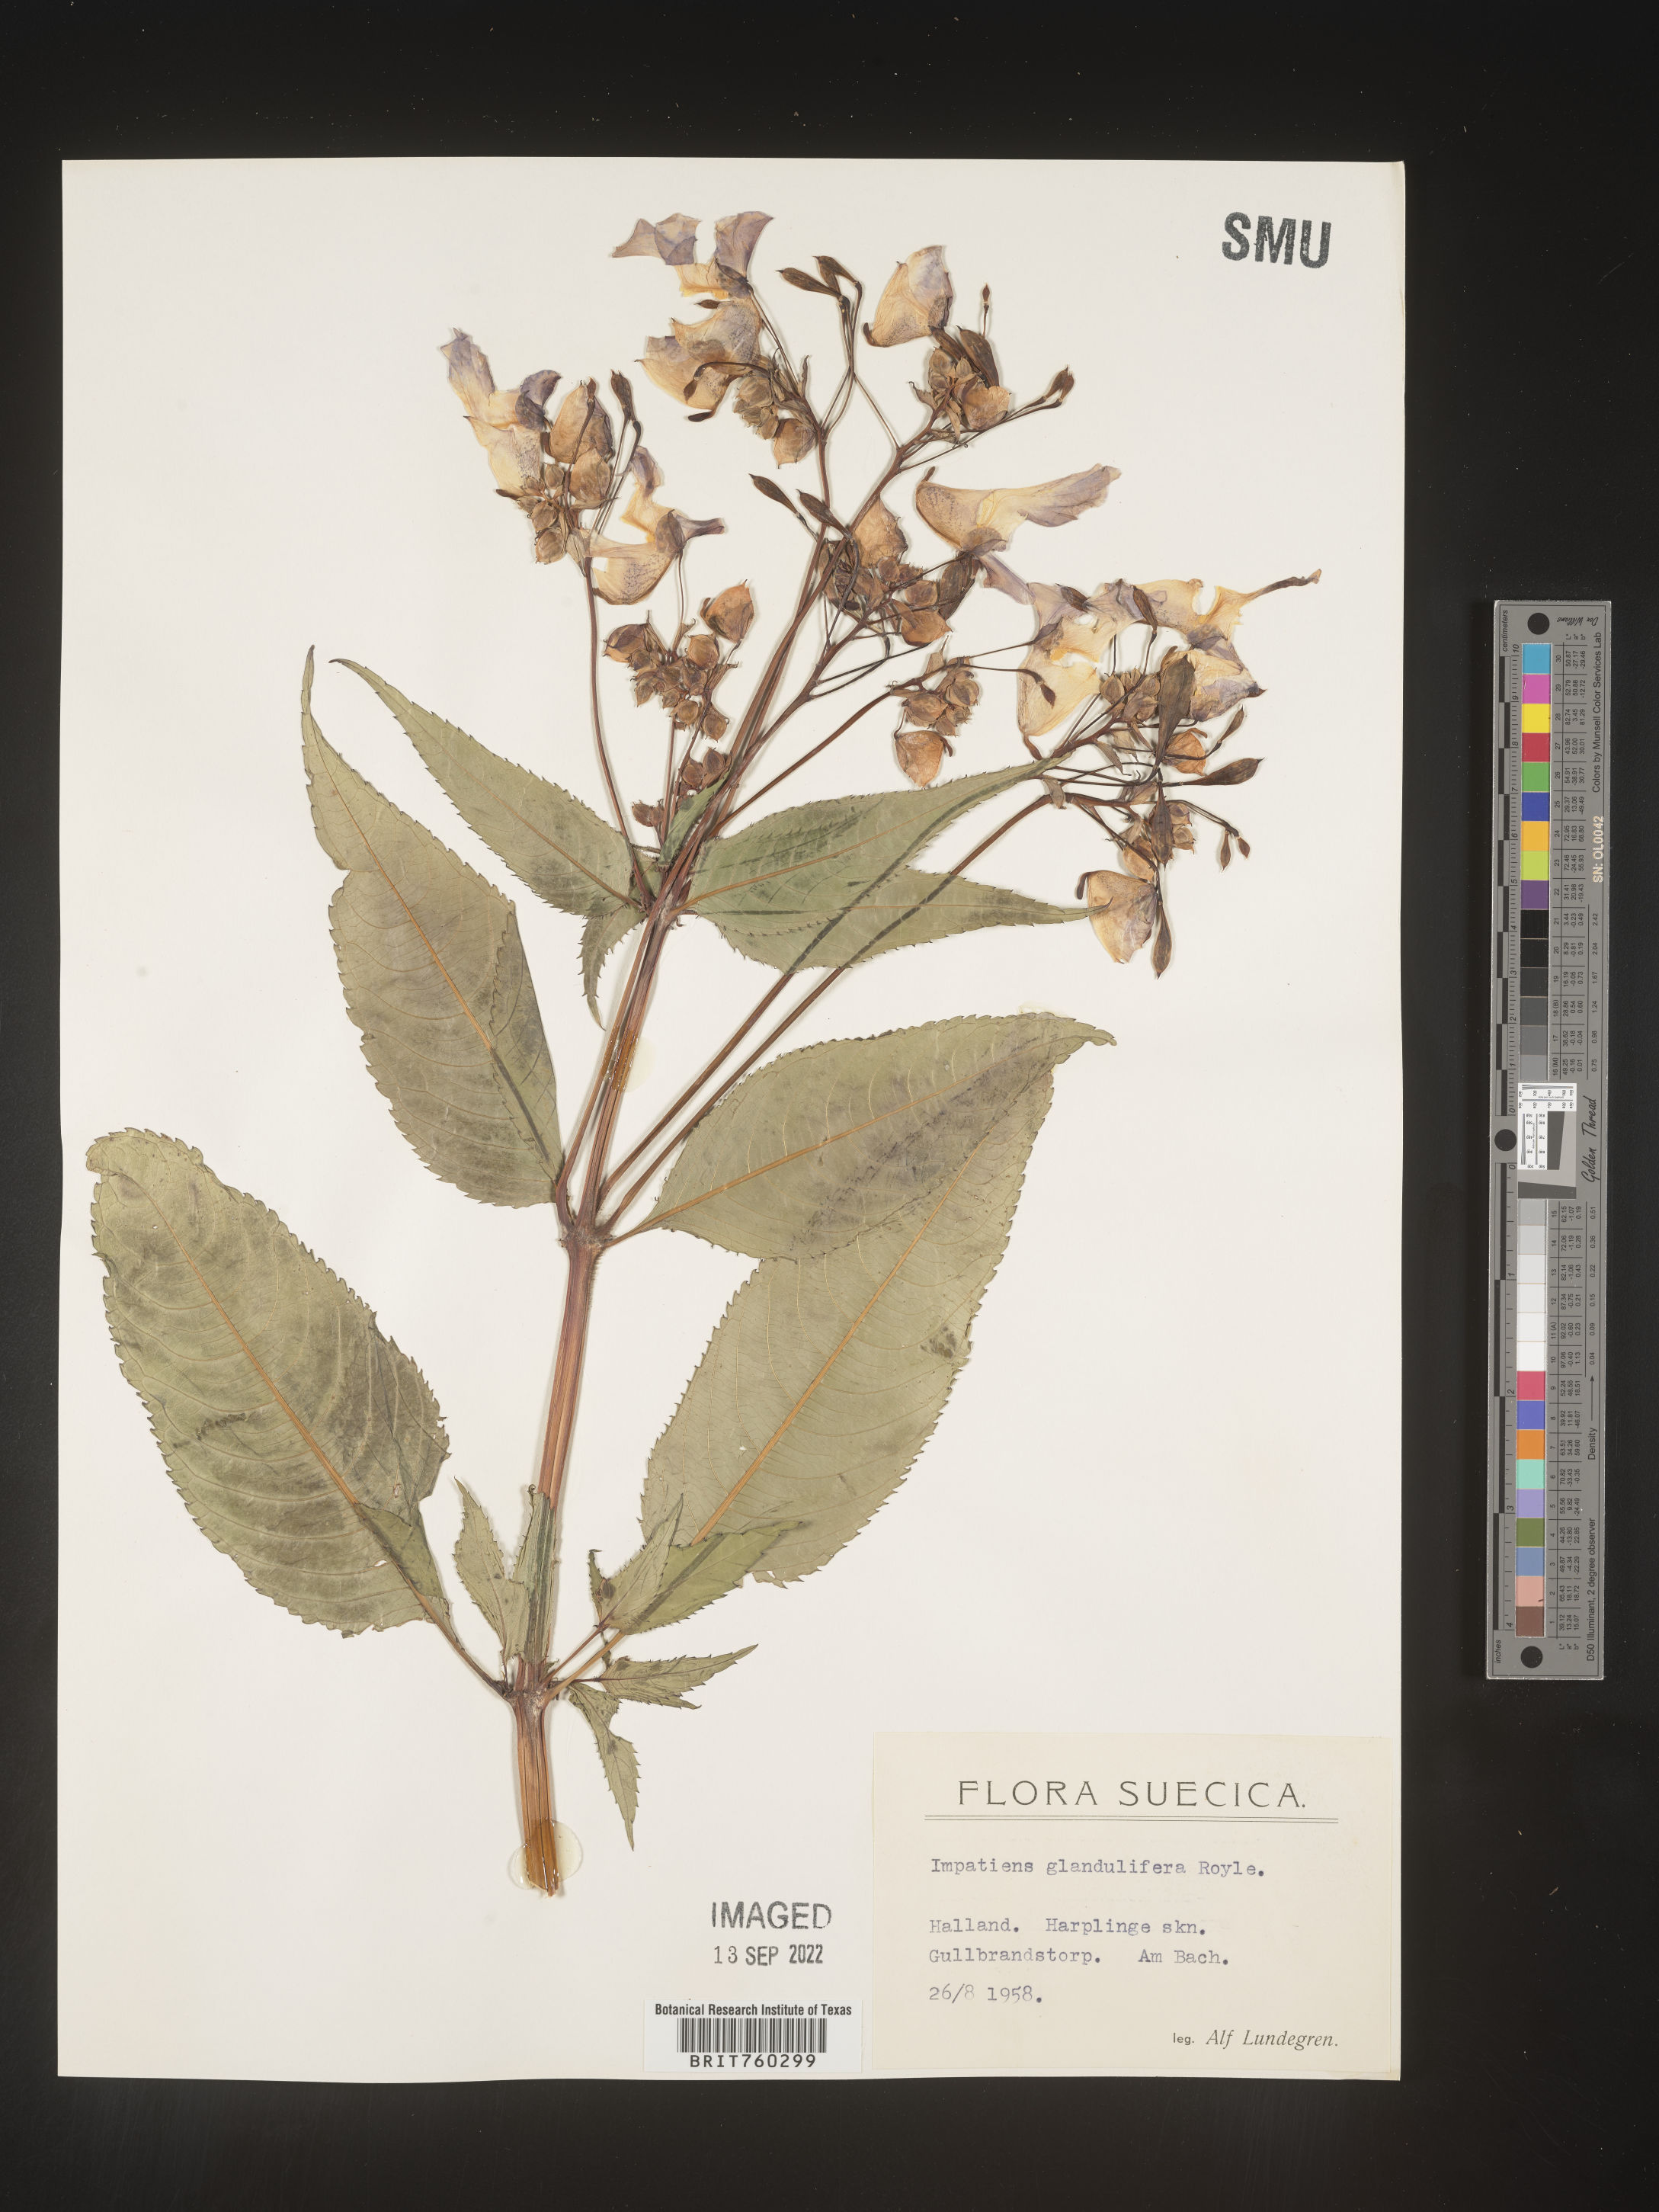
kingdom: Plantae
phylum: Tracheophyta
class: Magnoliopsida
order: Ericales
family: Balsaminaceae
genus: Impatiens
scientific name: Impatiens
